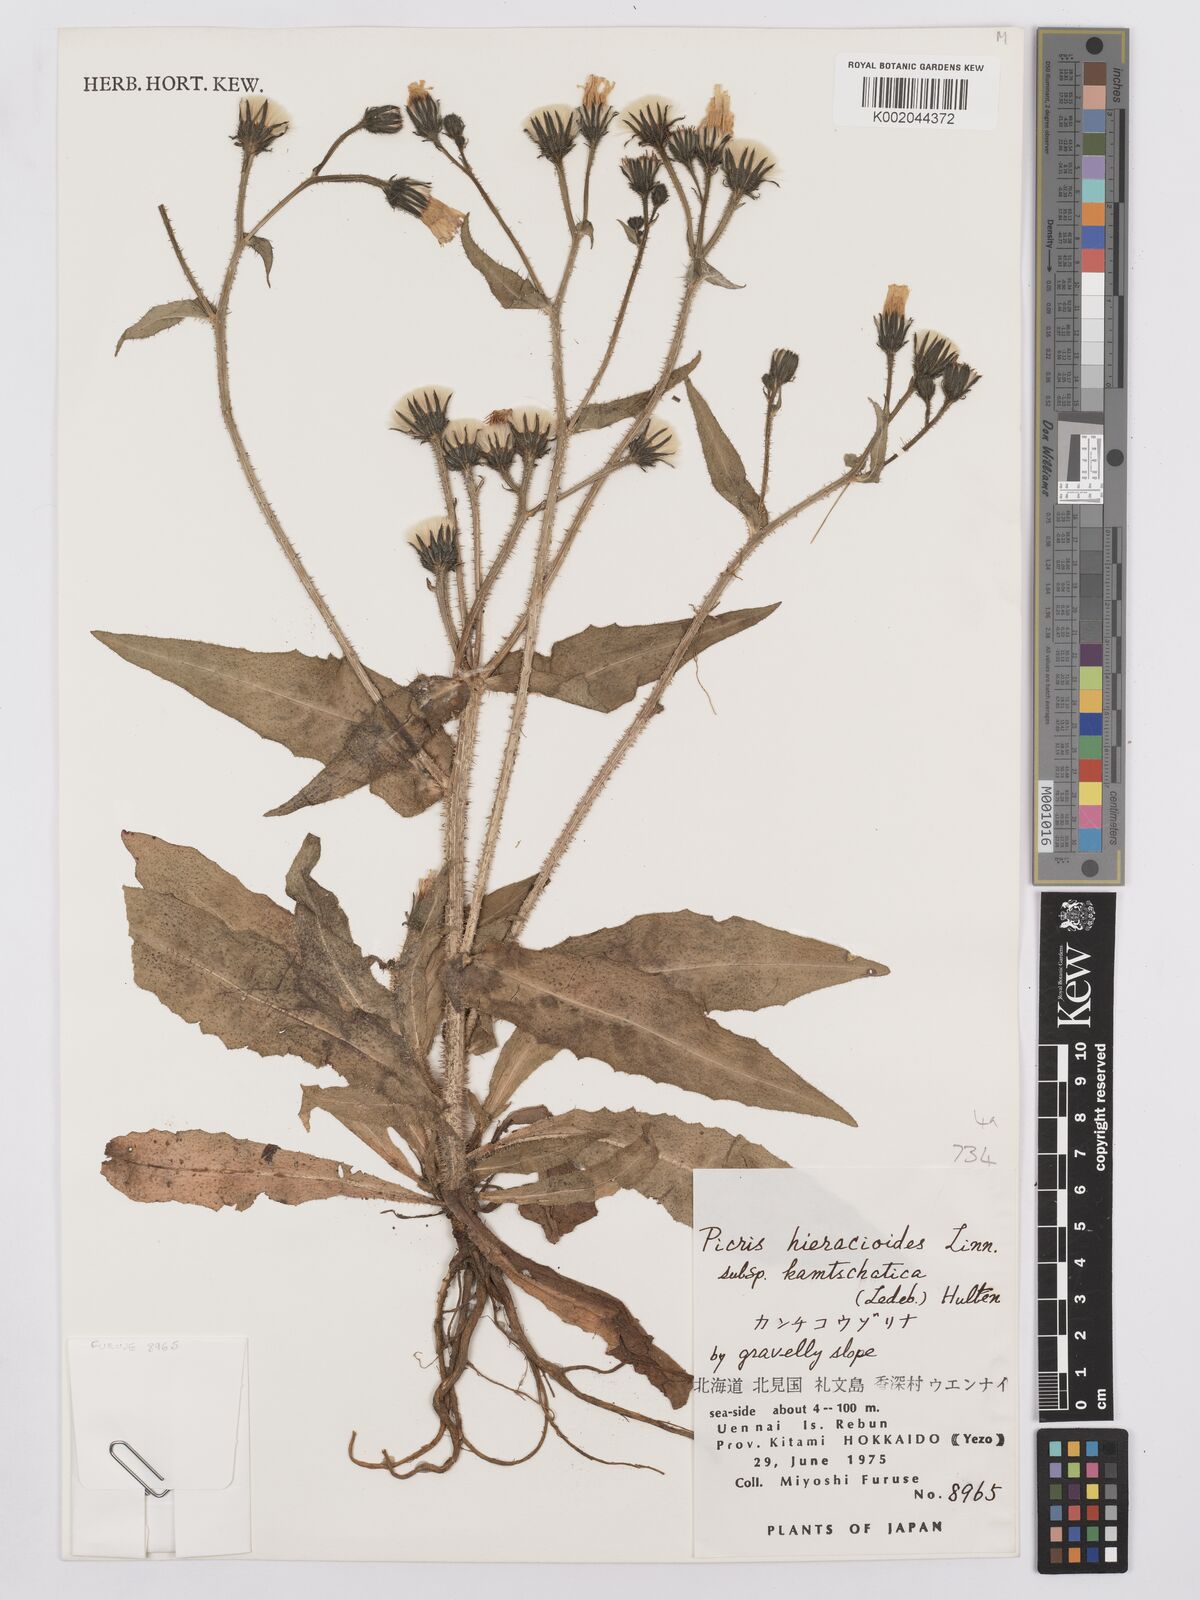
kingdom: Plantae
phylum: Tracheophyta
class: Magnoliopsida
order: Asterales
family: Asteraceae
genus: Picris
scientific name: Picris hieracioides
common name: Hawkweed oxtongue
